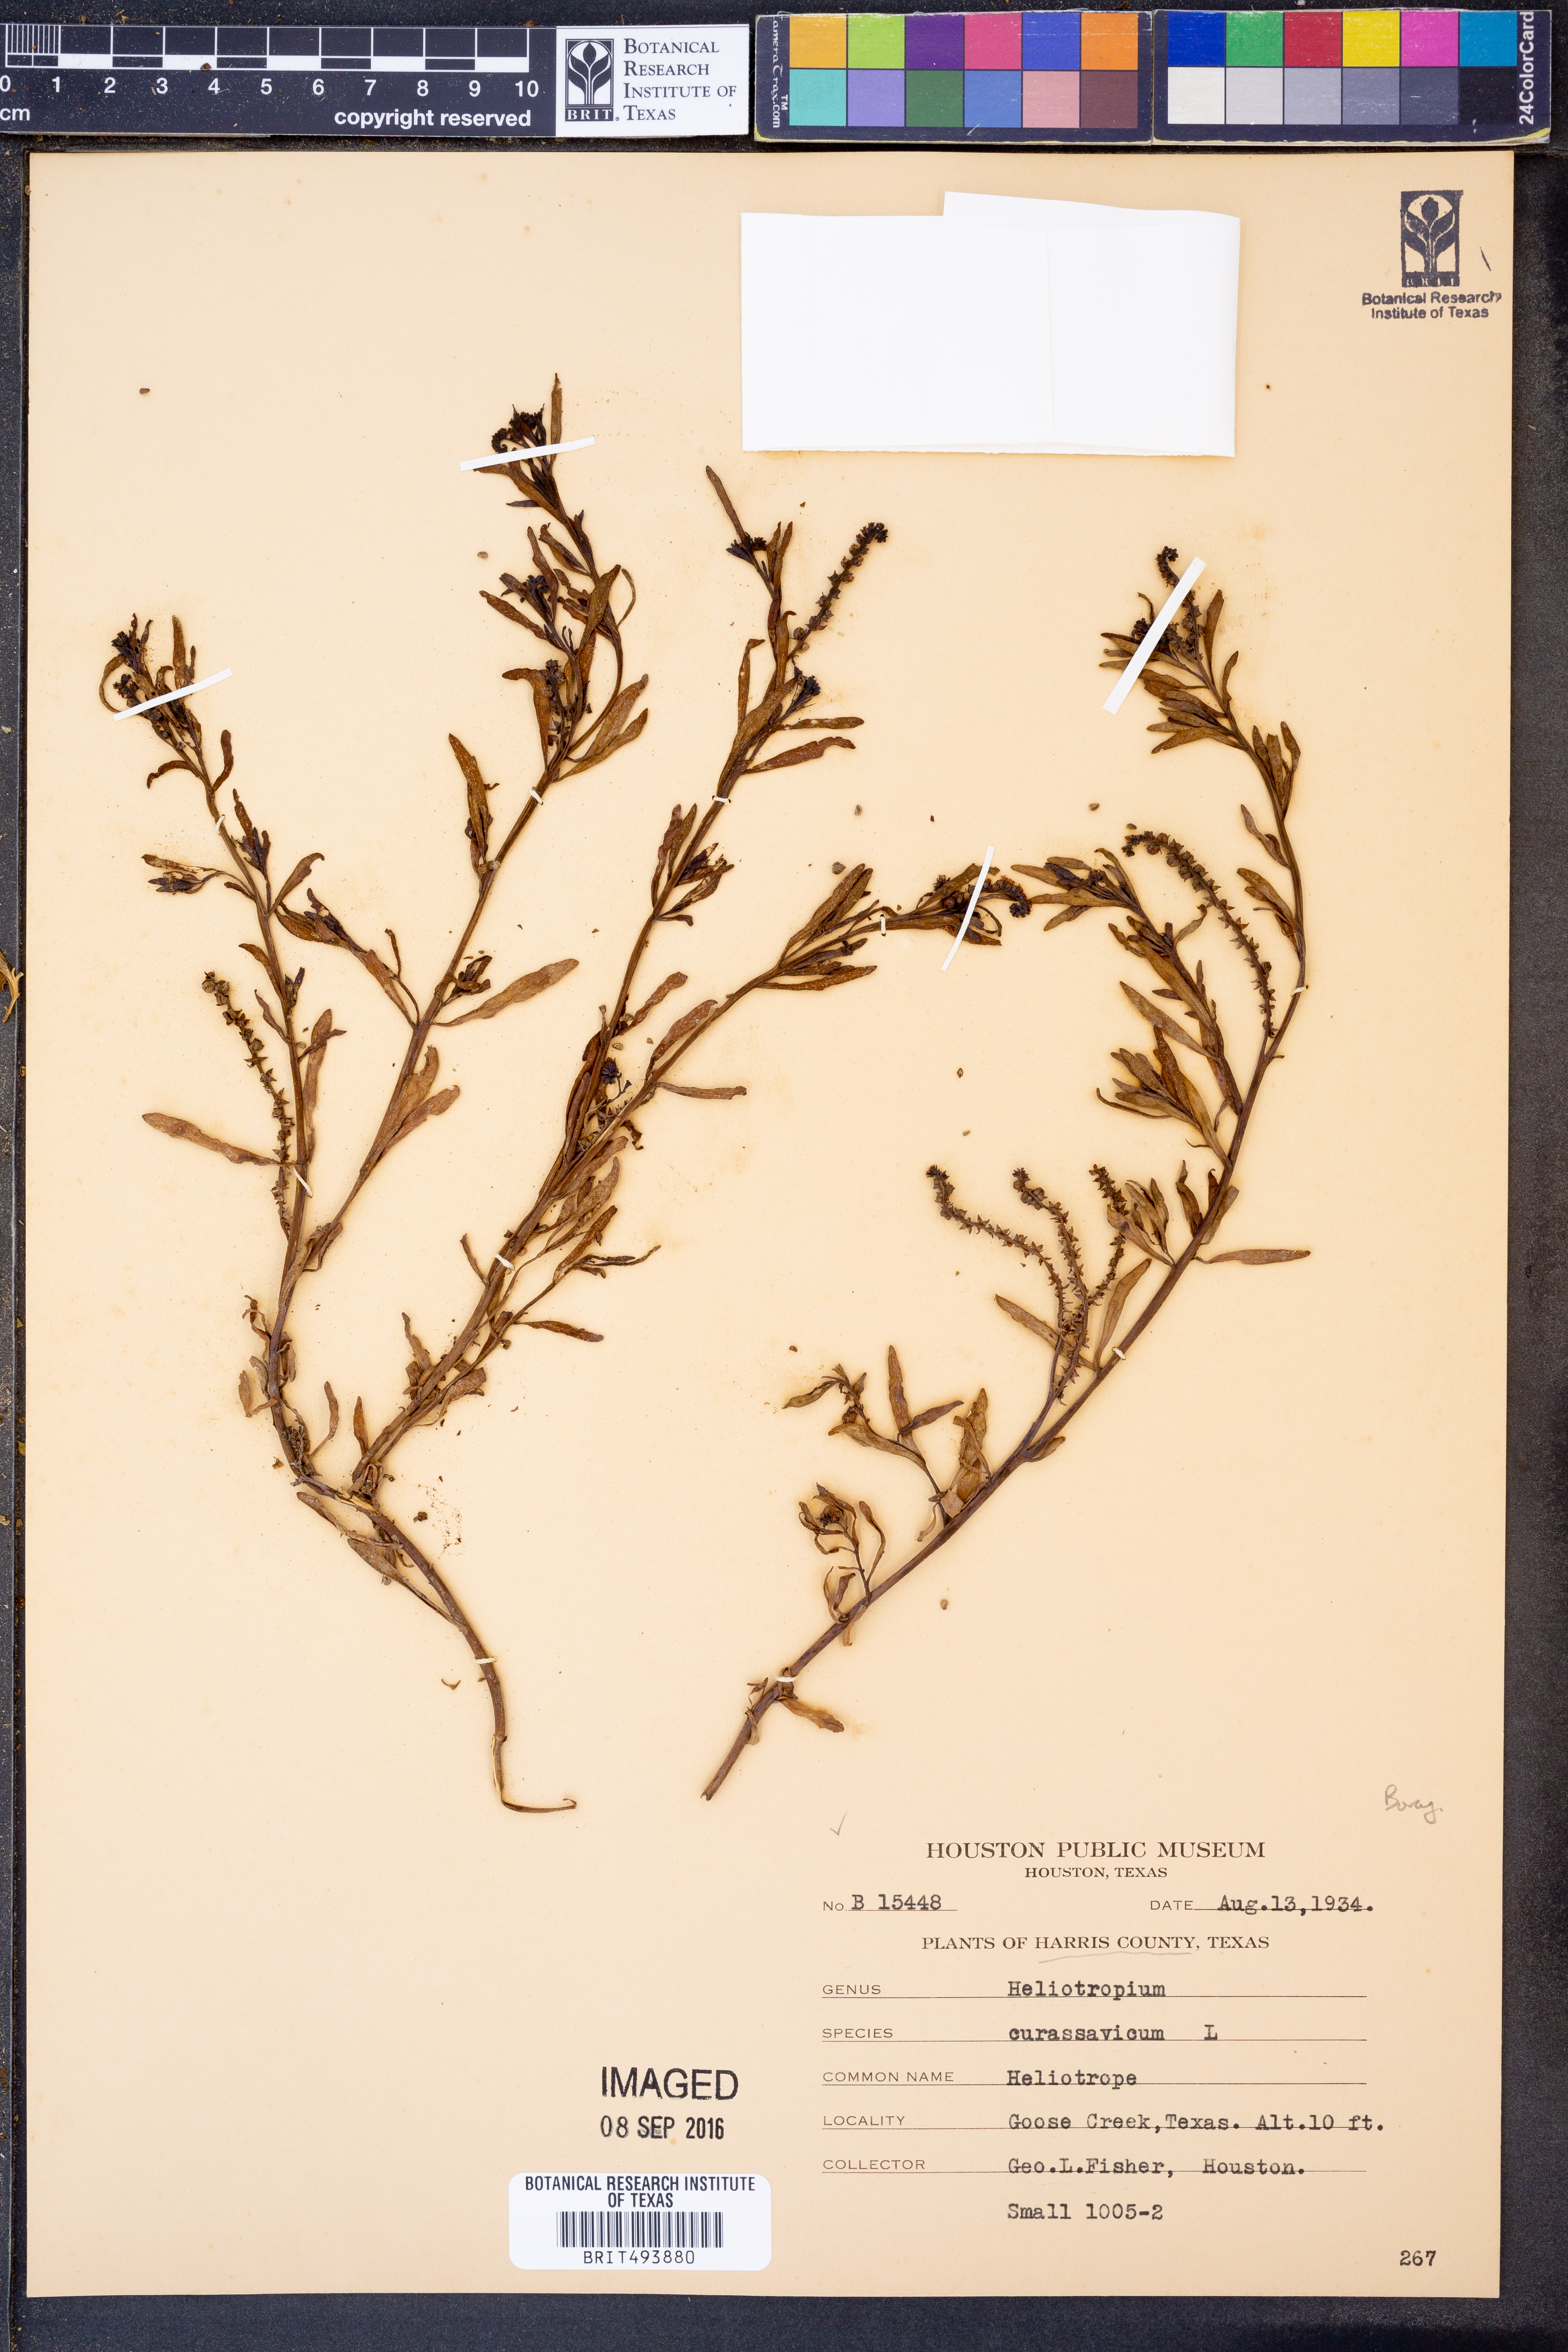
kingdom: Plantae
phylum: Tracheophyta
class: Magnoliopsida
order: Boraginales
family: Heliotropiaceae
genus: Heliotropium
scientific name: Heliotropium curassavicum
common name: Seaside heliotrope
